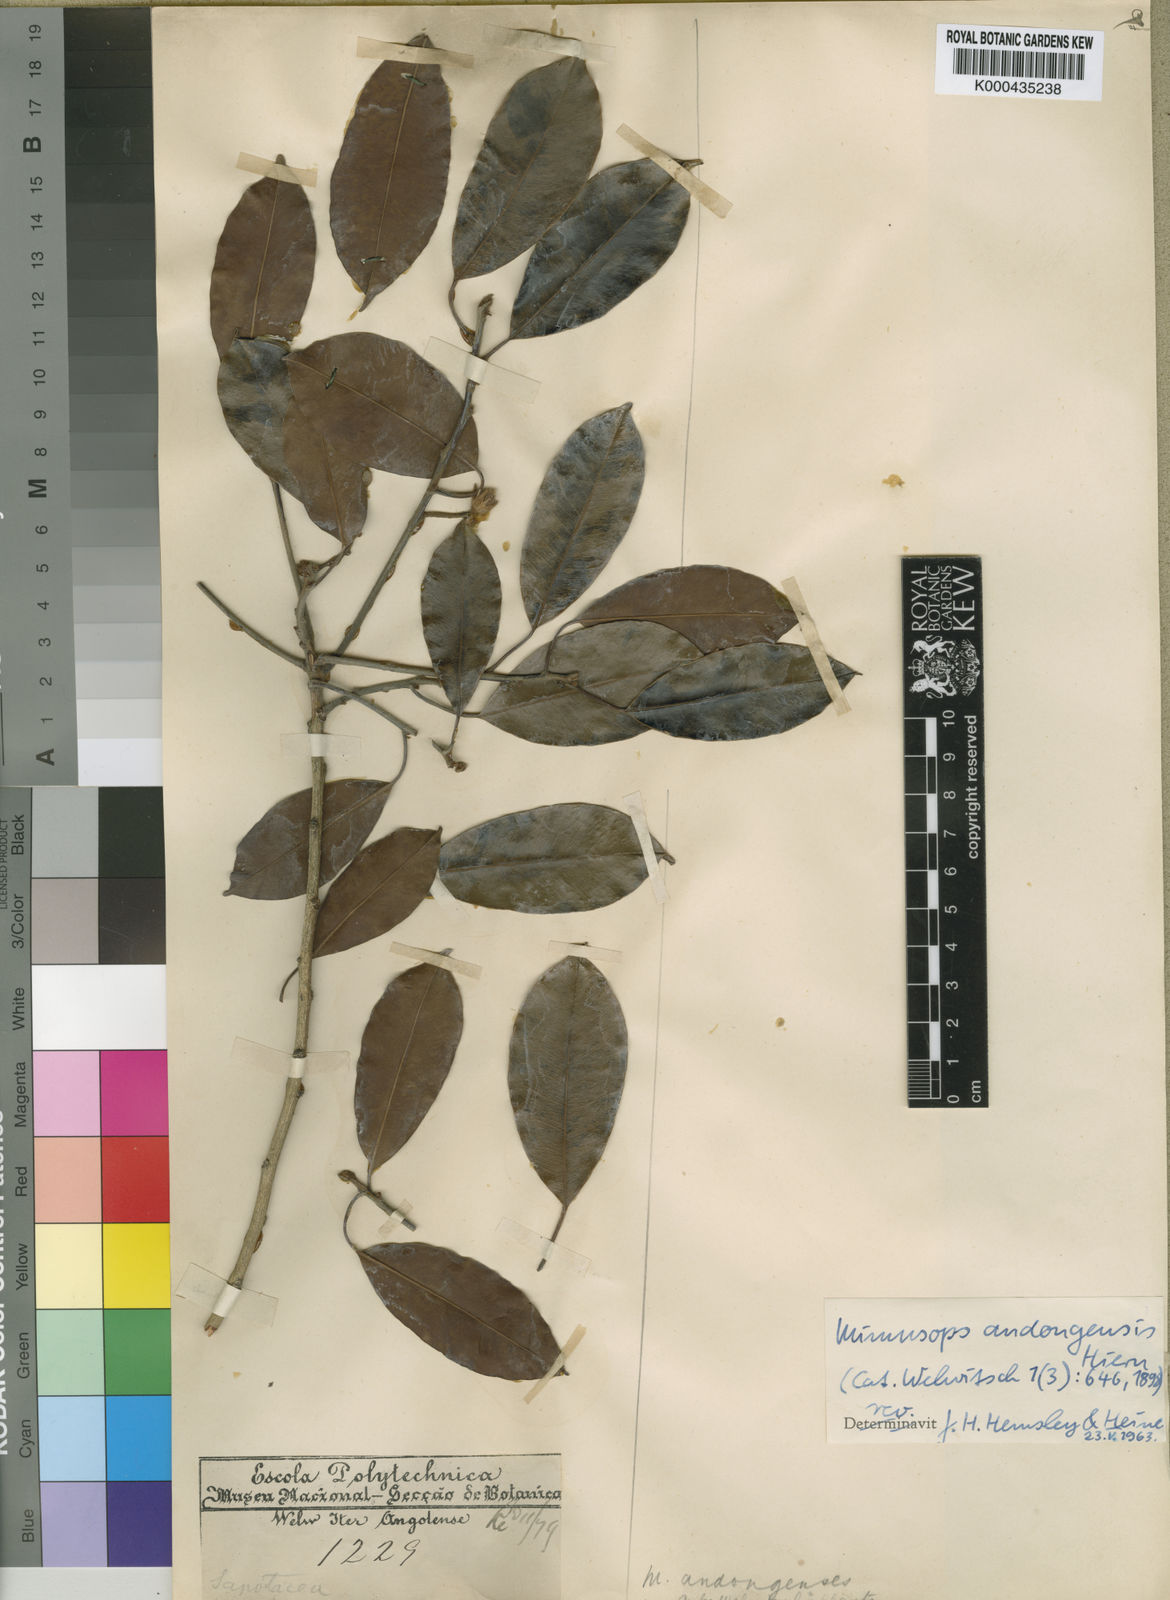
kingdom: Plantae
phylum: Tracheophyta
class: Magnoliopsida
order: Ericales
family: Sapotaceae
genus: Mimusops
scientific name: Mimusops andongensis
